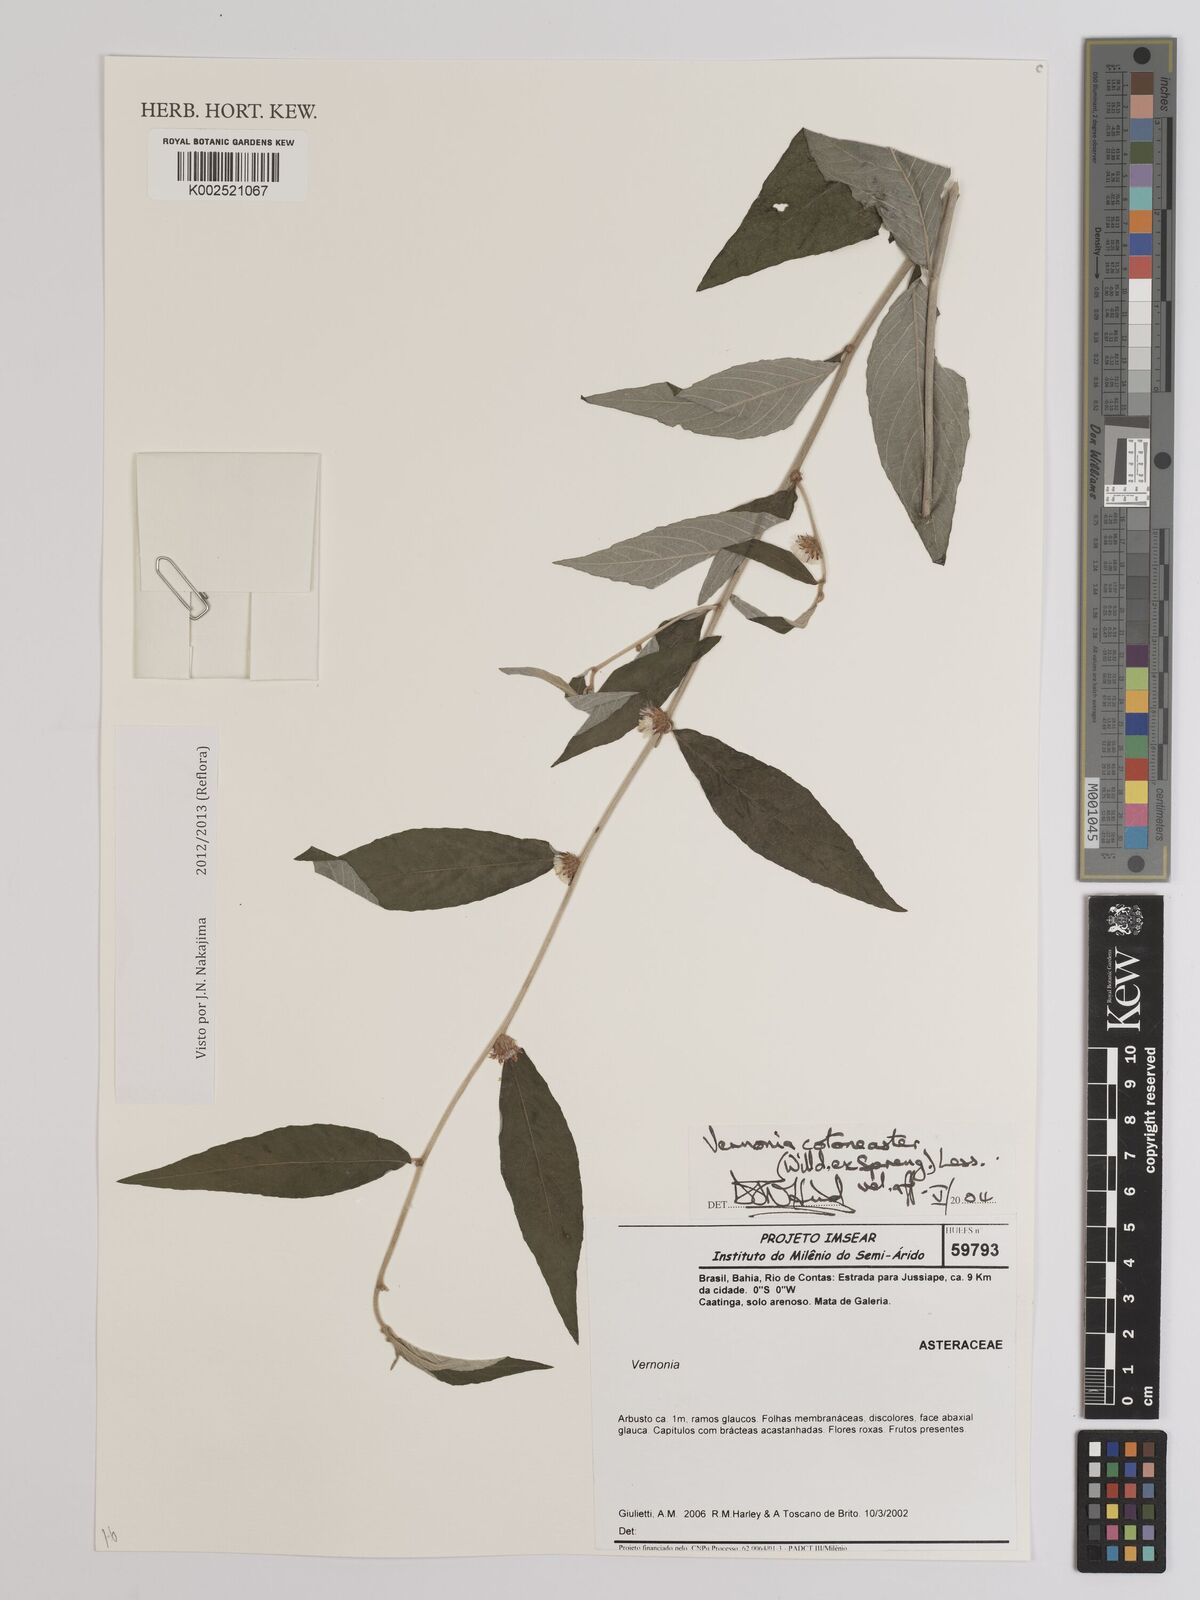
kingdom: Plantae
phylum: Tracheophyta
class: Magnoliopsida
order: Asterales
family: Asteraceae
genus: Lepidaploa
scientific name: Lepidaploa cotoneaster
